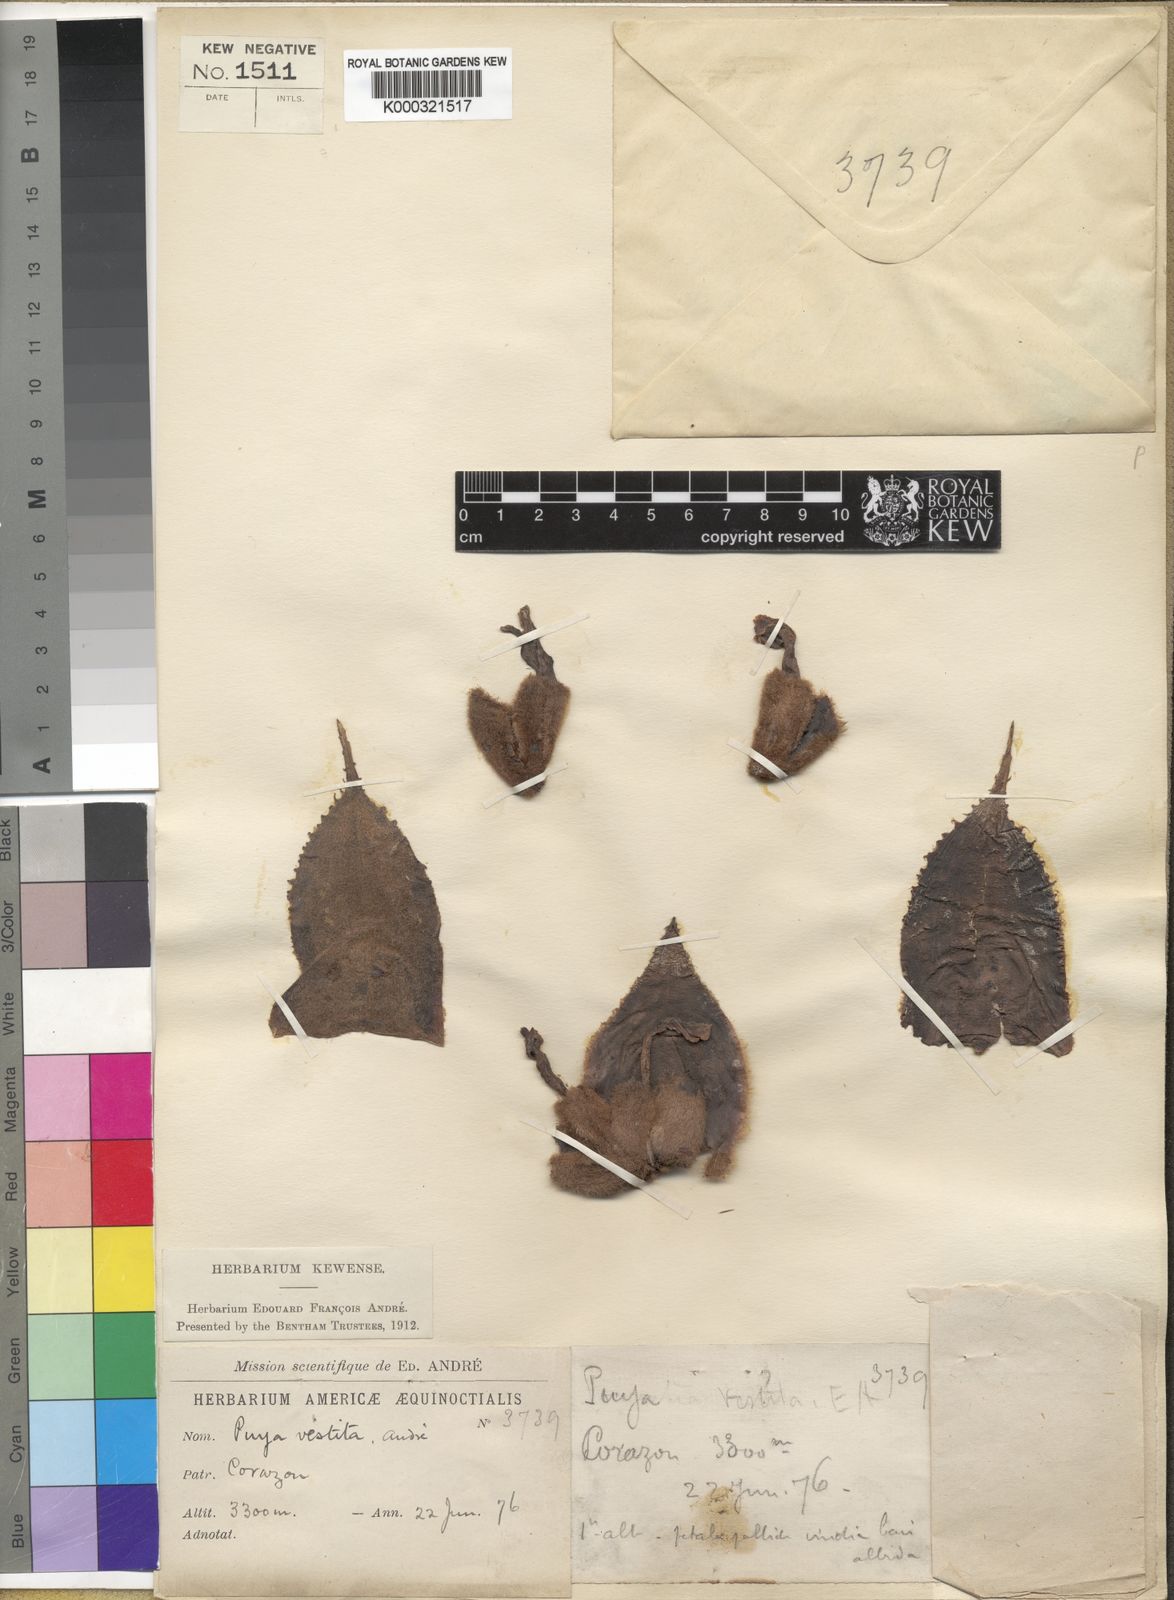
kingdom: Plantae
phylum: Tracheophyta
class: Liliopsida
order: Poales
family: Bromeliaceae
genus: Puya
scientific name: Puya
